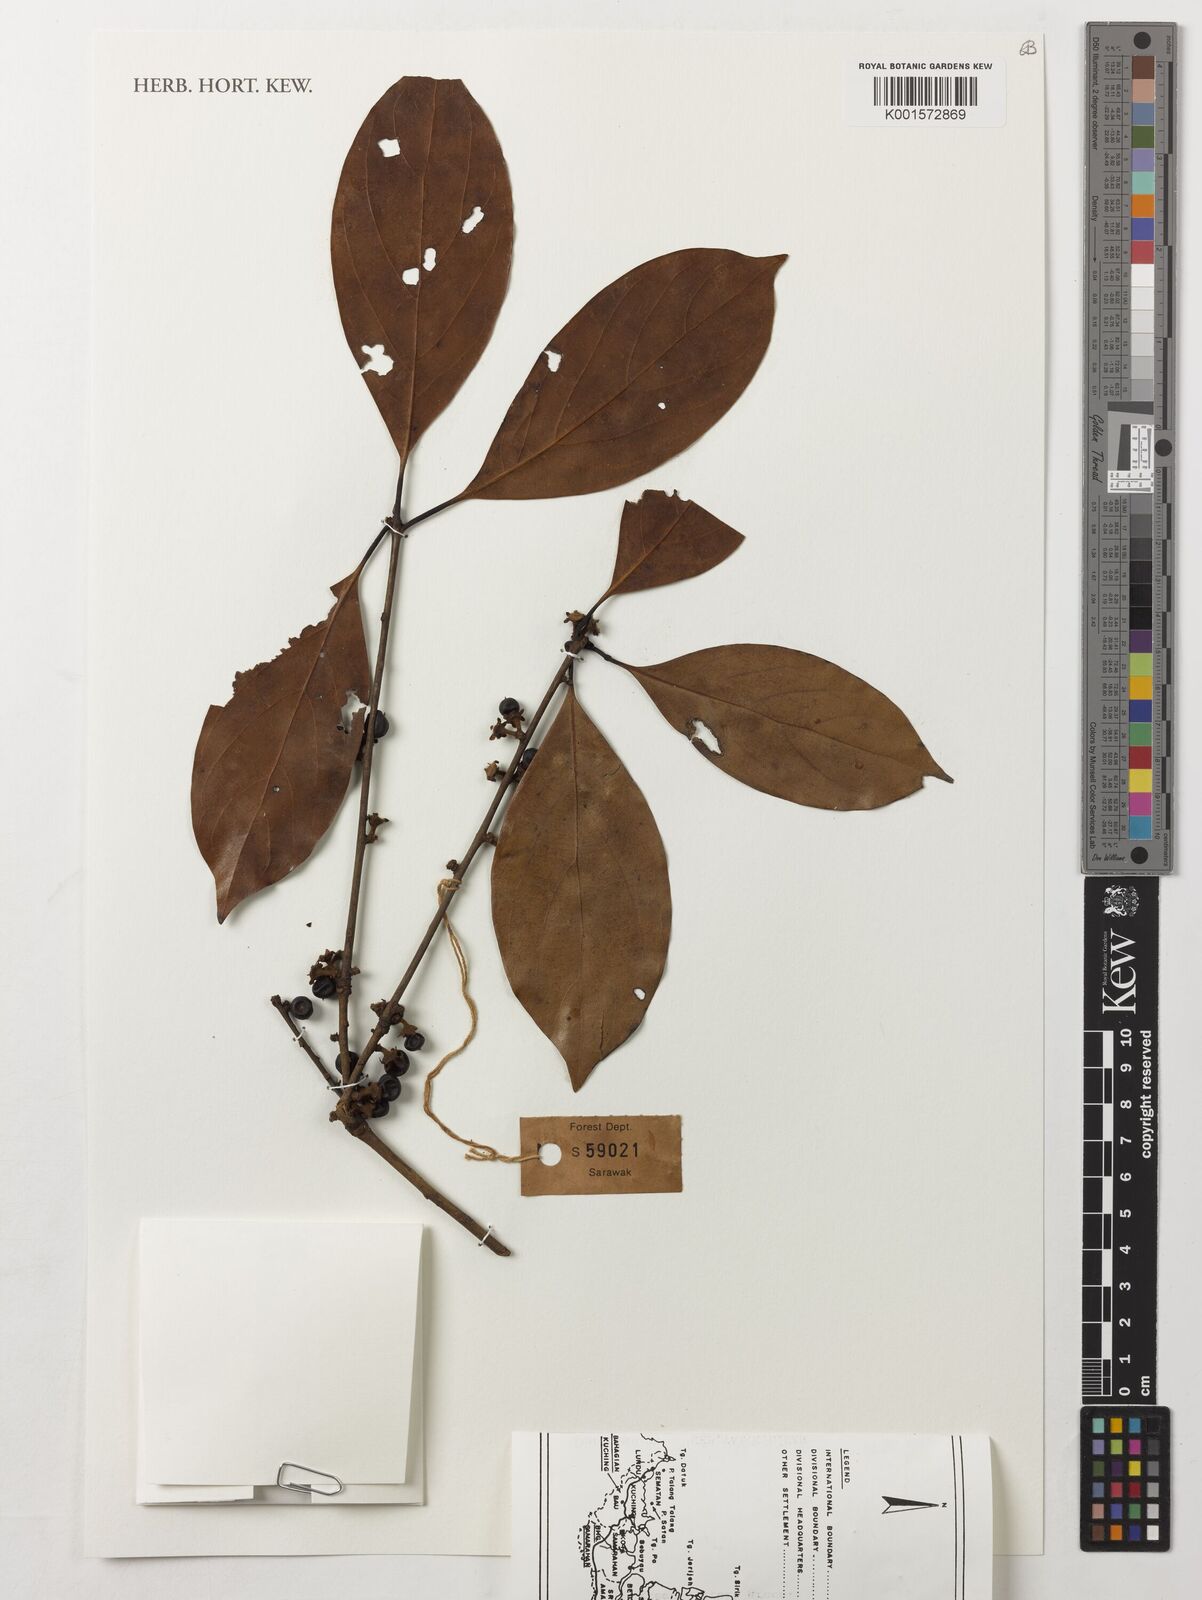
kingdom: Plantae
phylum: Tracheophyta
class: Magnoliopsida
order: Laurales
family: Lauraceae
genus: Actinodaphne
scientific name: Actinodaphne
